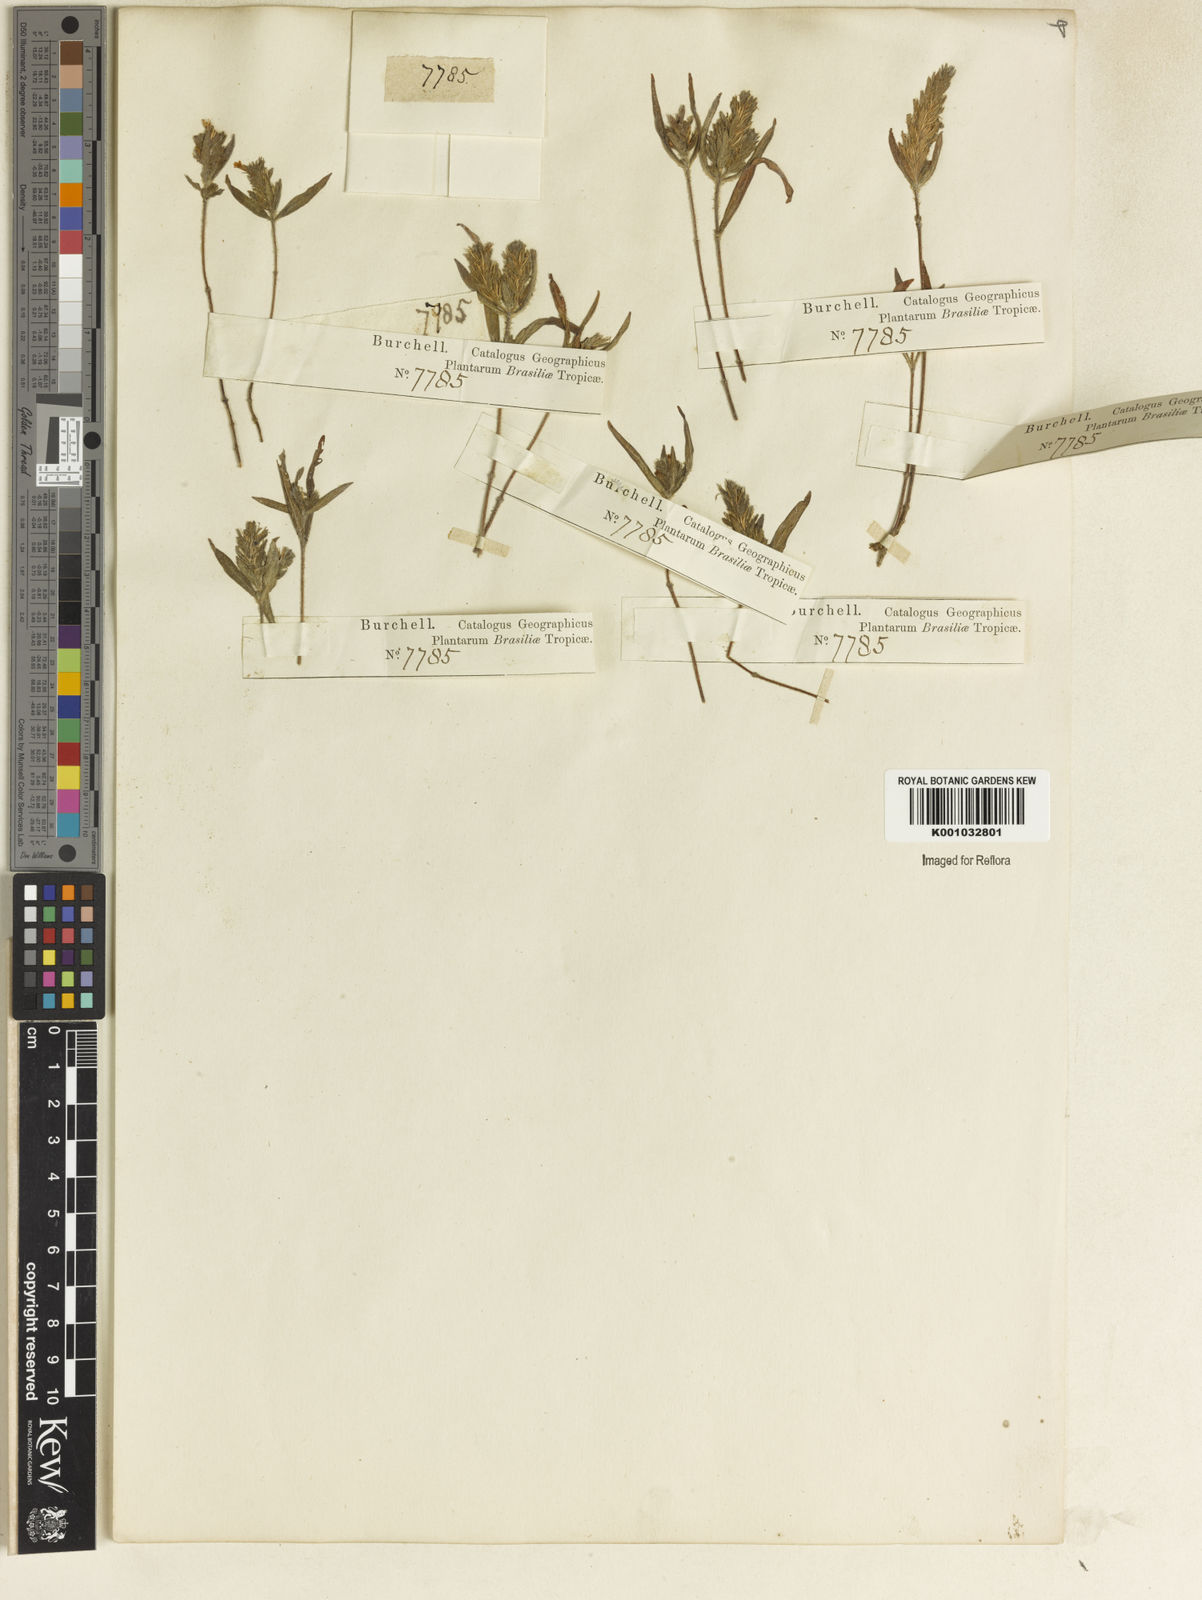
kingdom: Plantae
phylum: Tracheophyta
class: Magnoliopsida
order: Lamiales
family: Acanthaceae
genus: Stenandrium
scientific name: Stenandrium villosum
